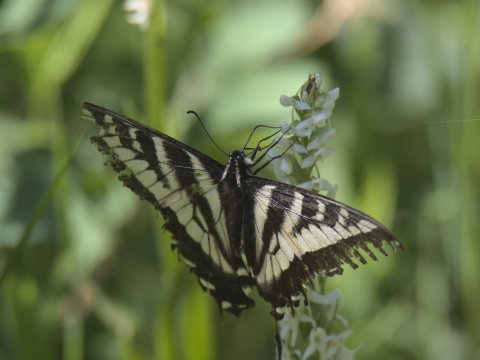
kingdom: Animalia
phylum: Arthropoda
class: Insecta
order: Lepidoptera
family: Papilionidae
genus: Pterourus
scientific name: Pterourus eurymedon
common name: Pale Swallowtail
